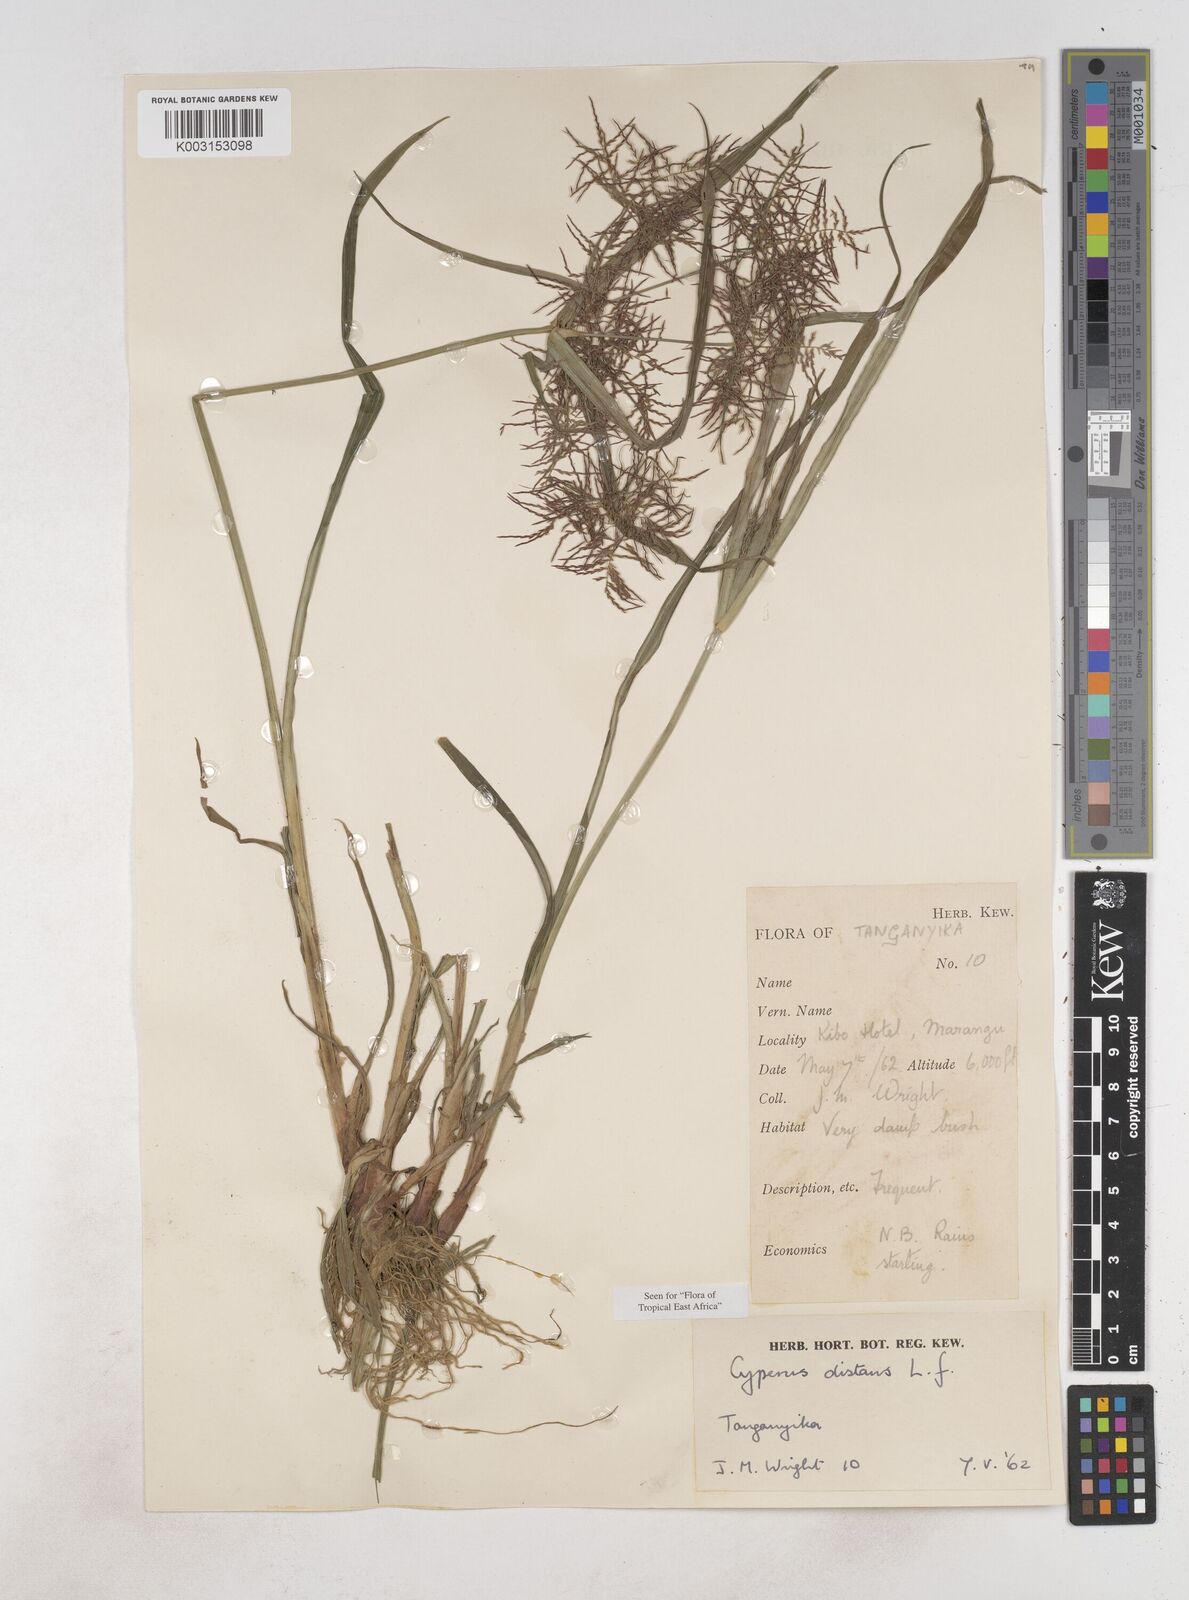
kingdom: Plantae
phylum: Tracheophyta
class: Liliopsida
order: Poales
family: Cyperaceae
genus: Cyperus
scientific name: Cyperus distans
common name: Slender cyperus
